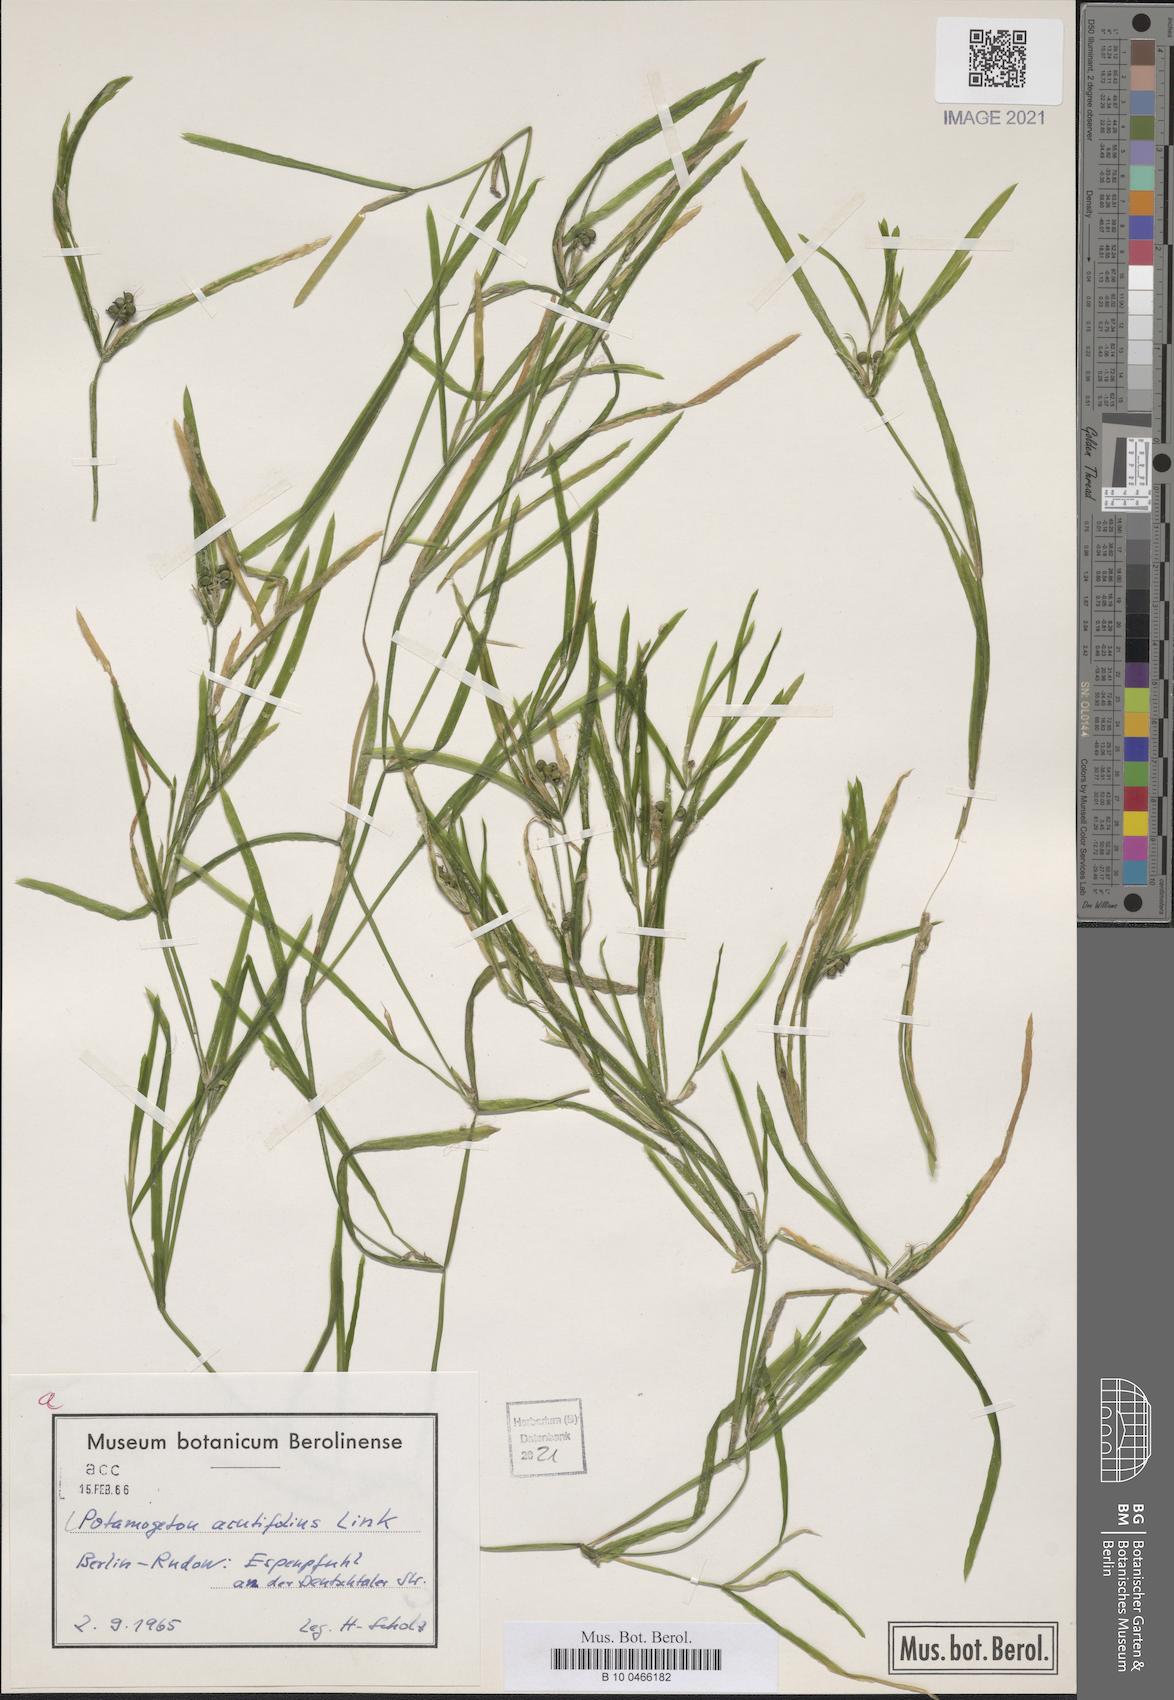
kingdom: Plantae
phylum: Tracheophyta
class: Liliopsida
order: Alismatales
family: Potamogetonaceae
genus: Potamogeton
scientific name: Potamogeton acutifolius
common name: Sharp-leaved pondweed
